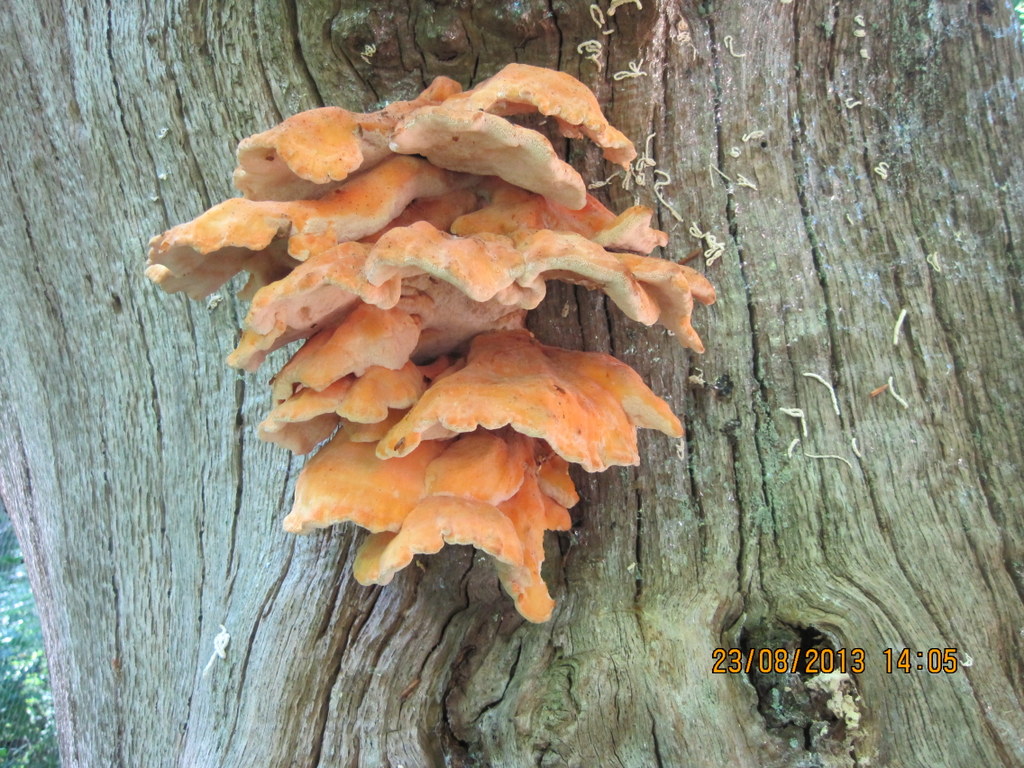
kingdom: Fungi
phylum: Basidiomycota
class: Agaricomycetes
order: Polyporales
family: Laetiporaceae
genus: Laetiporus
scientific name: Laetiporus sulphureus
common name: svovlporesvamp
